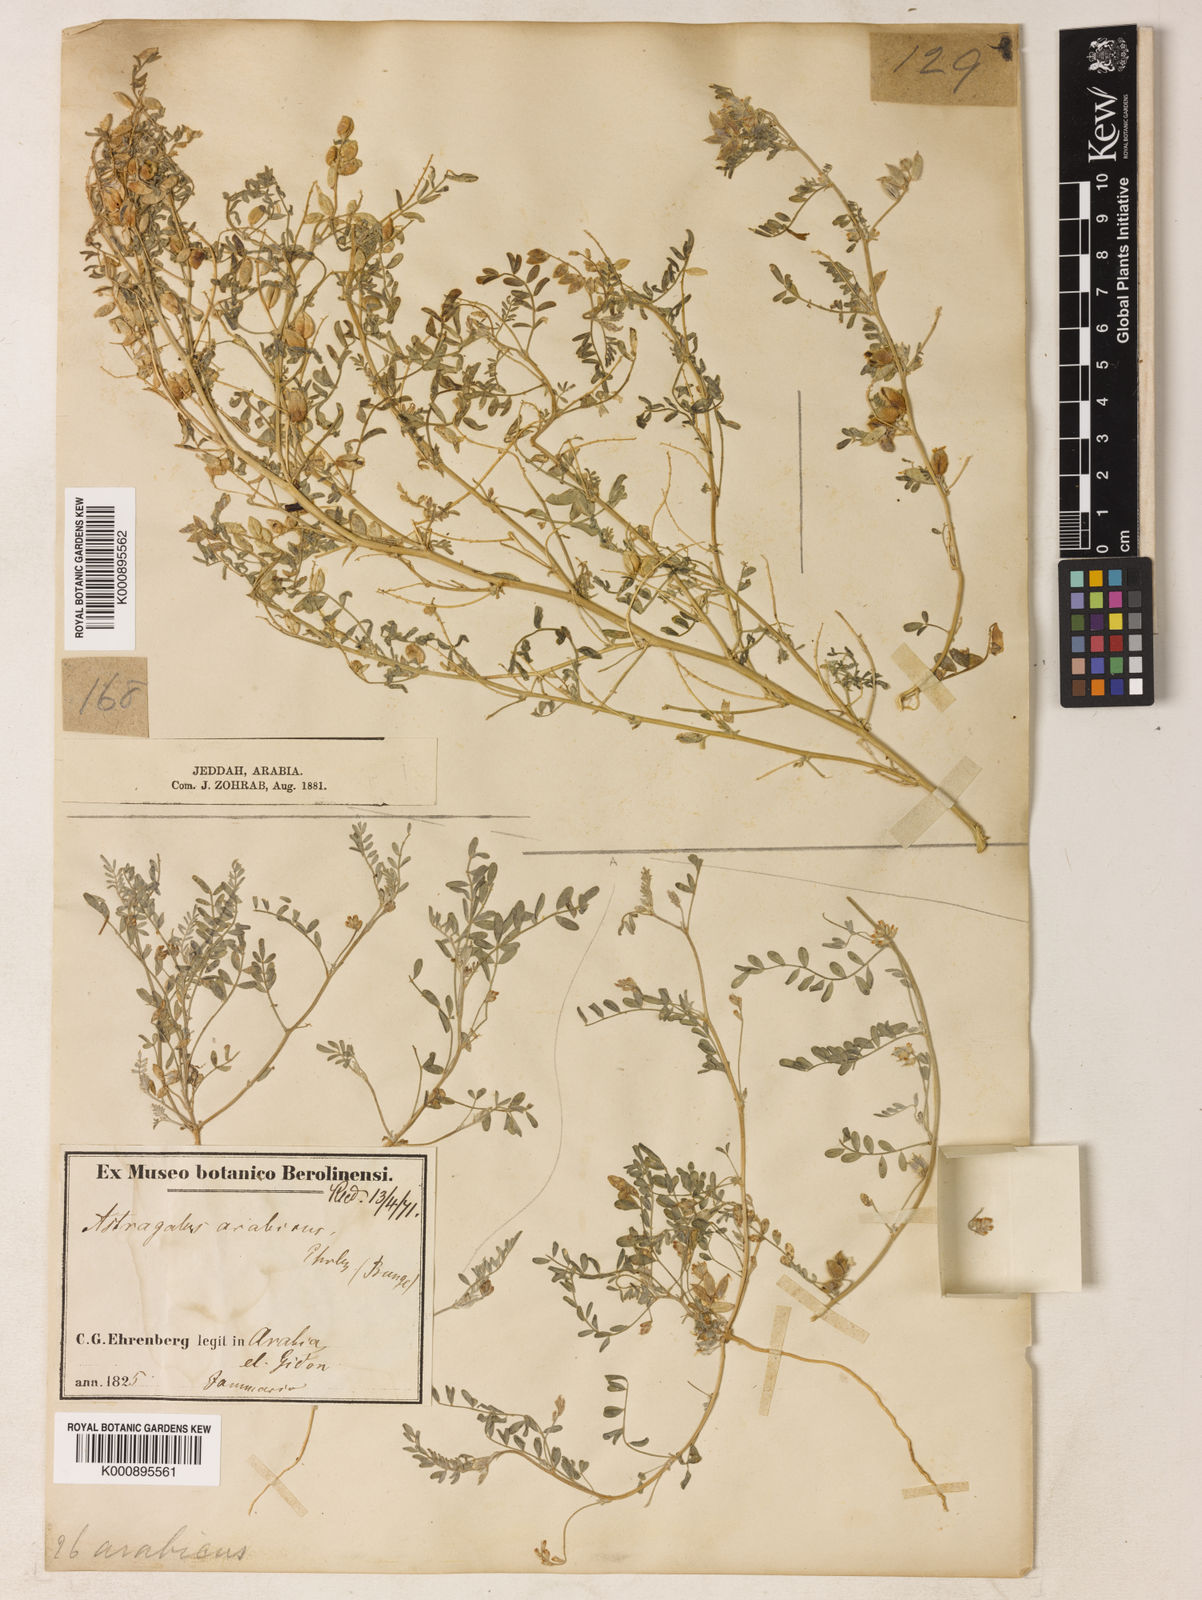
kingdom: Plantae
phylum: Tracheophyta
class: Magnoliopsida
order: Fabales
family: Fabaceae
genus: Astragalus
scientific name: Astragalus vogelii
